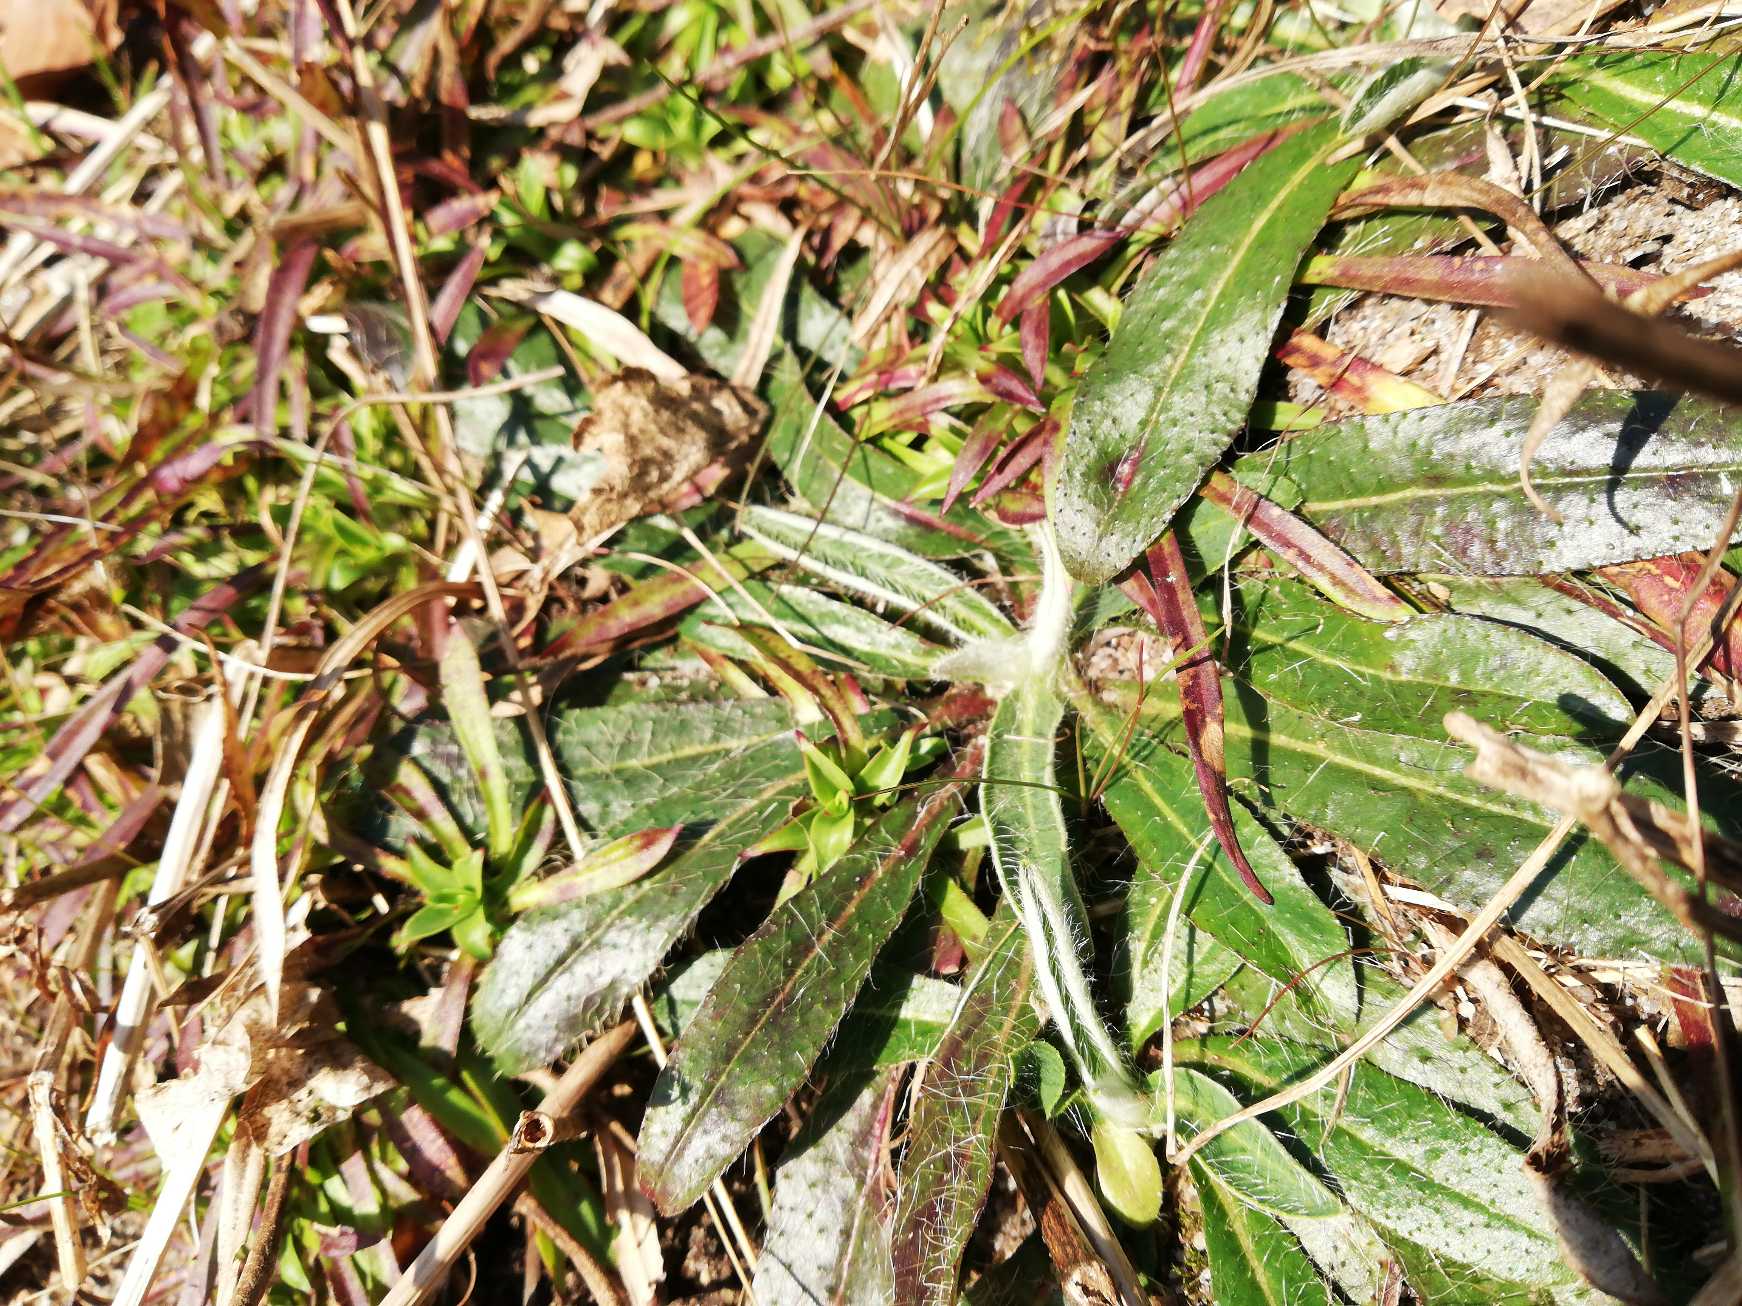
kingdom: Plantae
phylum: Tracheophyta
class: Magnoliopsida
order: Asterales
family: Asteraceae
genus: Pilosella
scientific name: Pilosella officinarum
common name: Håret høgeurt
